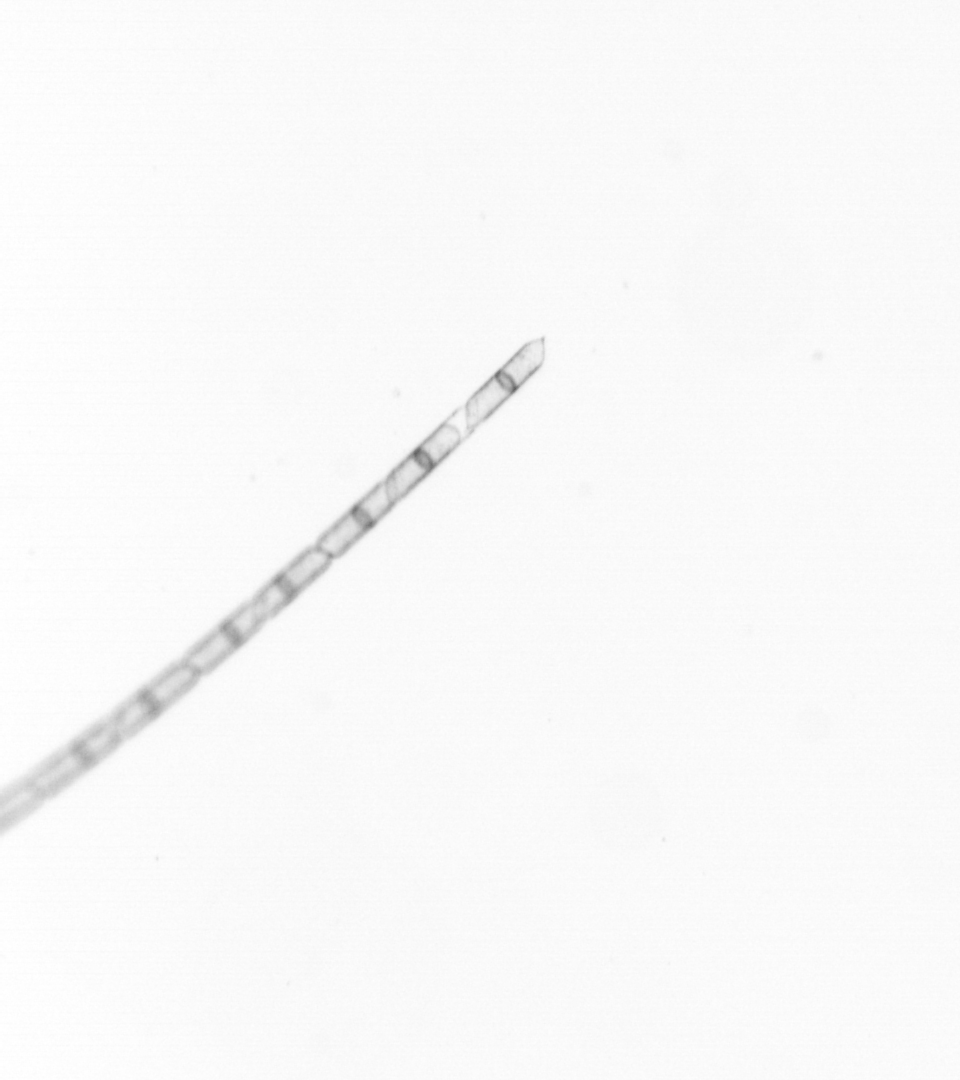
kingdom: Chromista
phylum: Ochrophyta
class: Bacillariophyceae
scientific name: Bacillariophyceae
